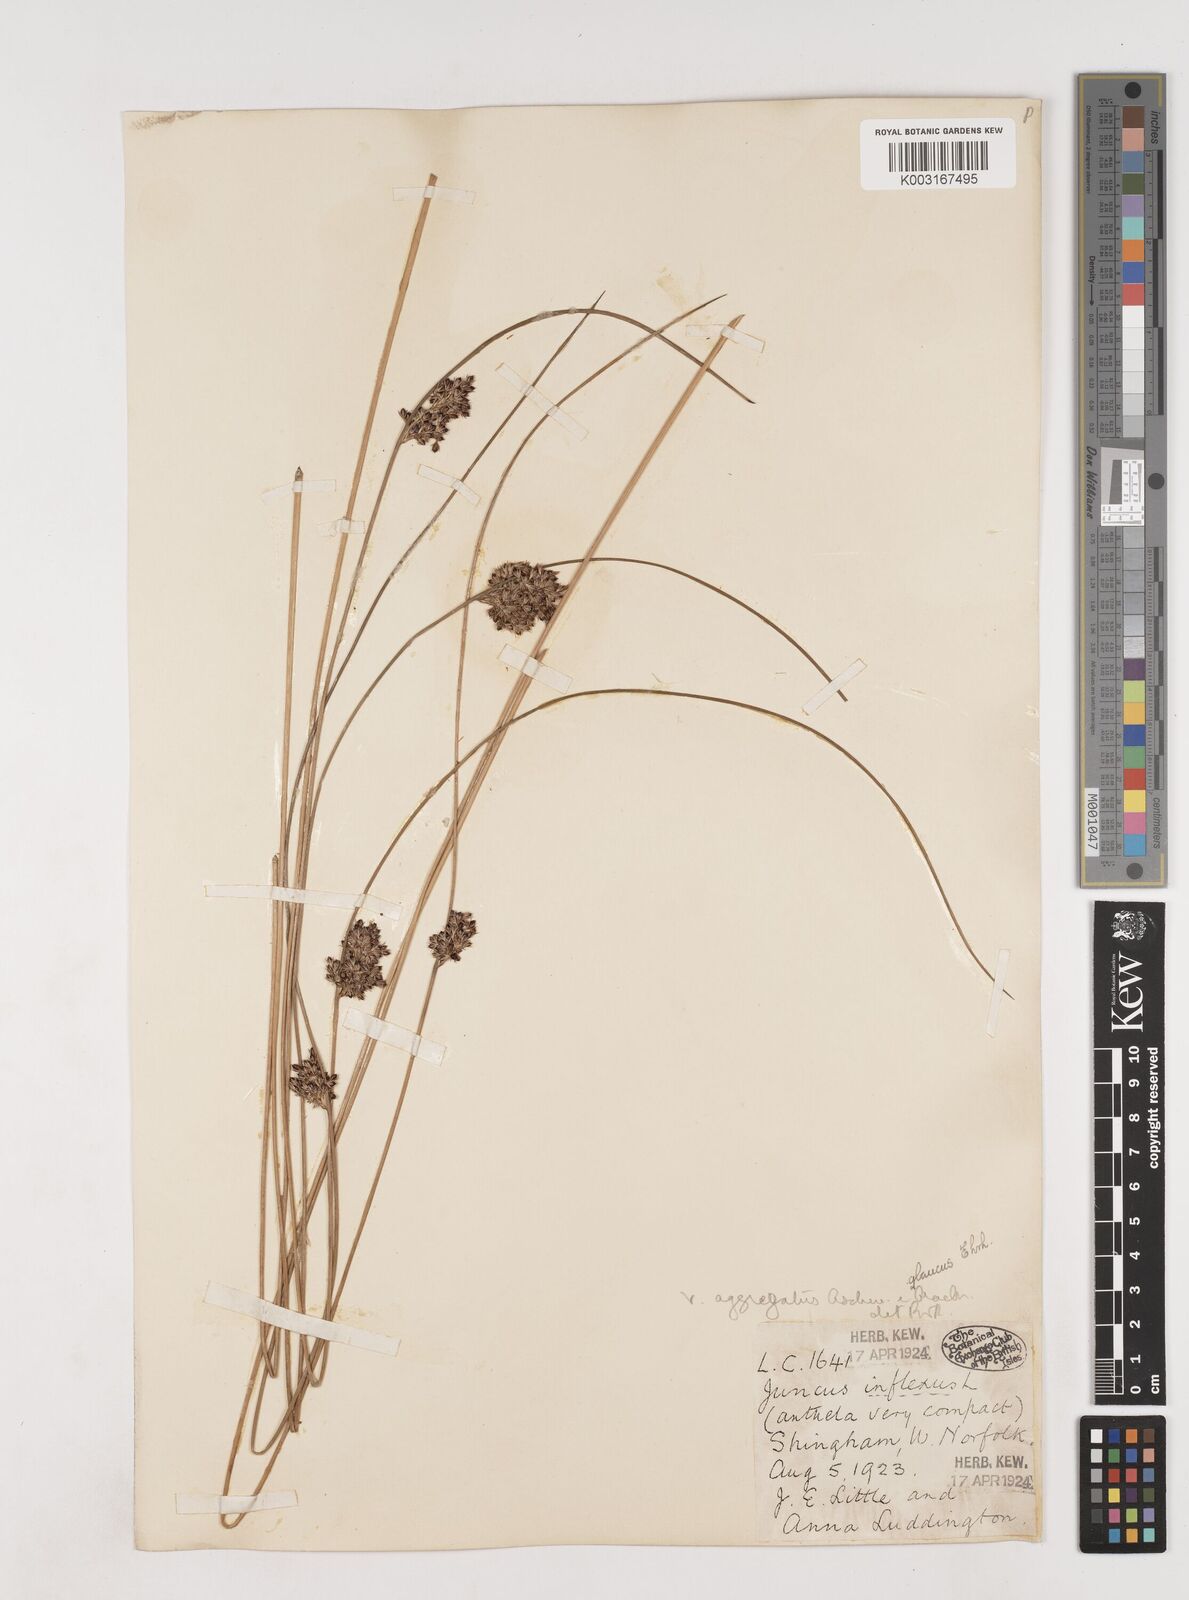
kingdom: Plantae
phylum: Tracheophyta
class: Liliopsida
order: Poales
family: Juncaceae
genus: Juncus
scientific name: Juncus inflexus
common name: Hard rush
